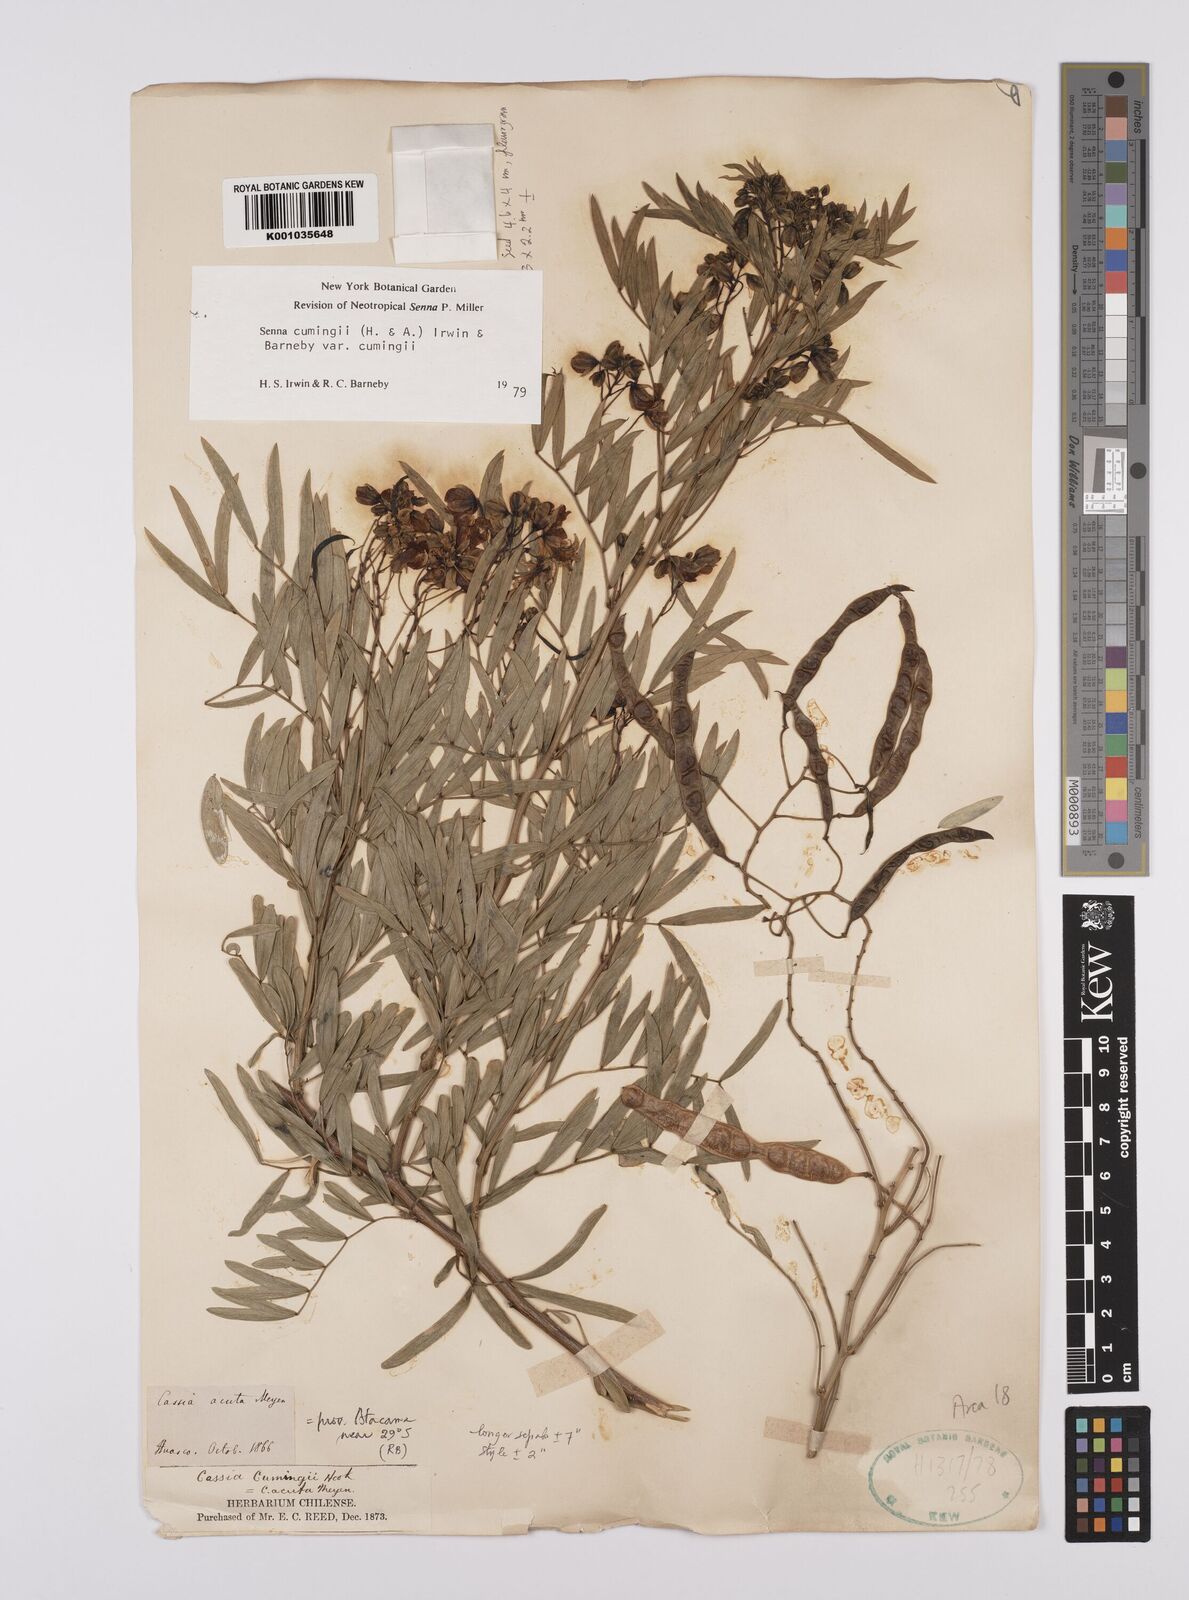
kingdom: Plantae
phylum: Tracheophyta
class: Magnoliopsida
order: Fabales
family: Fabaceae
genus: Senna
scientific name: Senna cumingii
